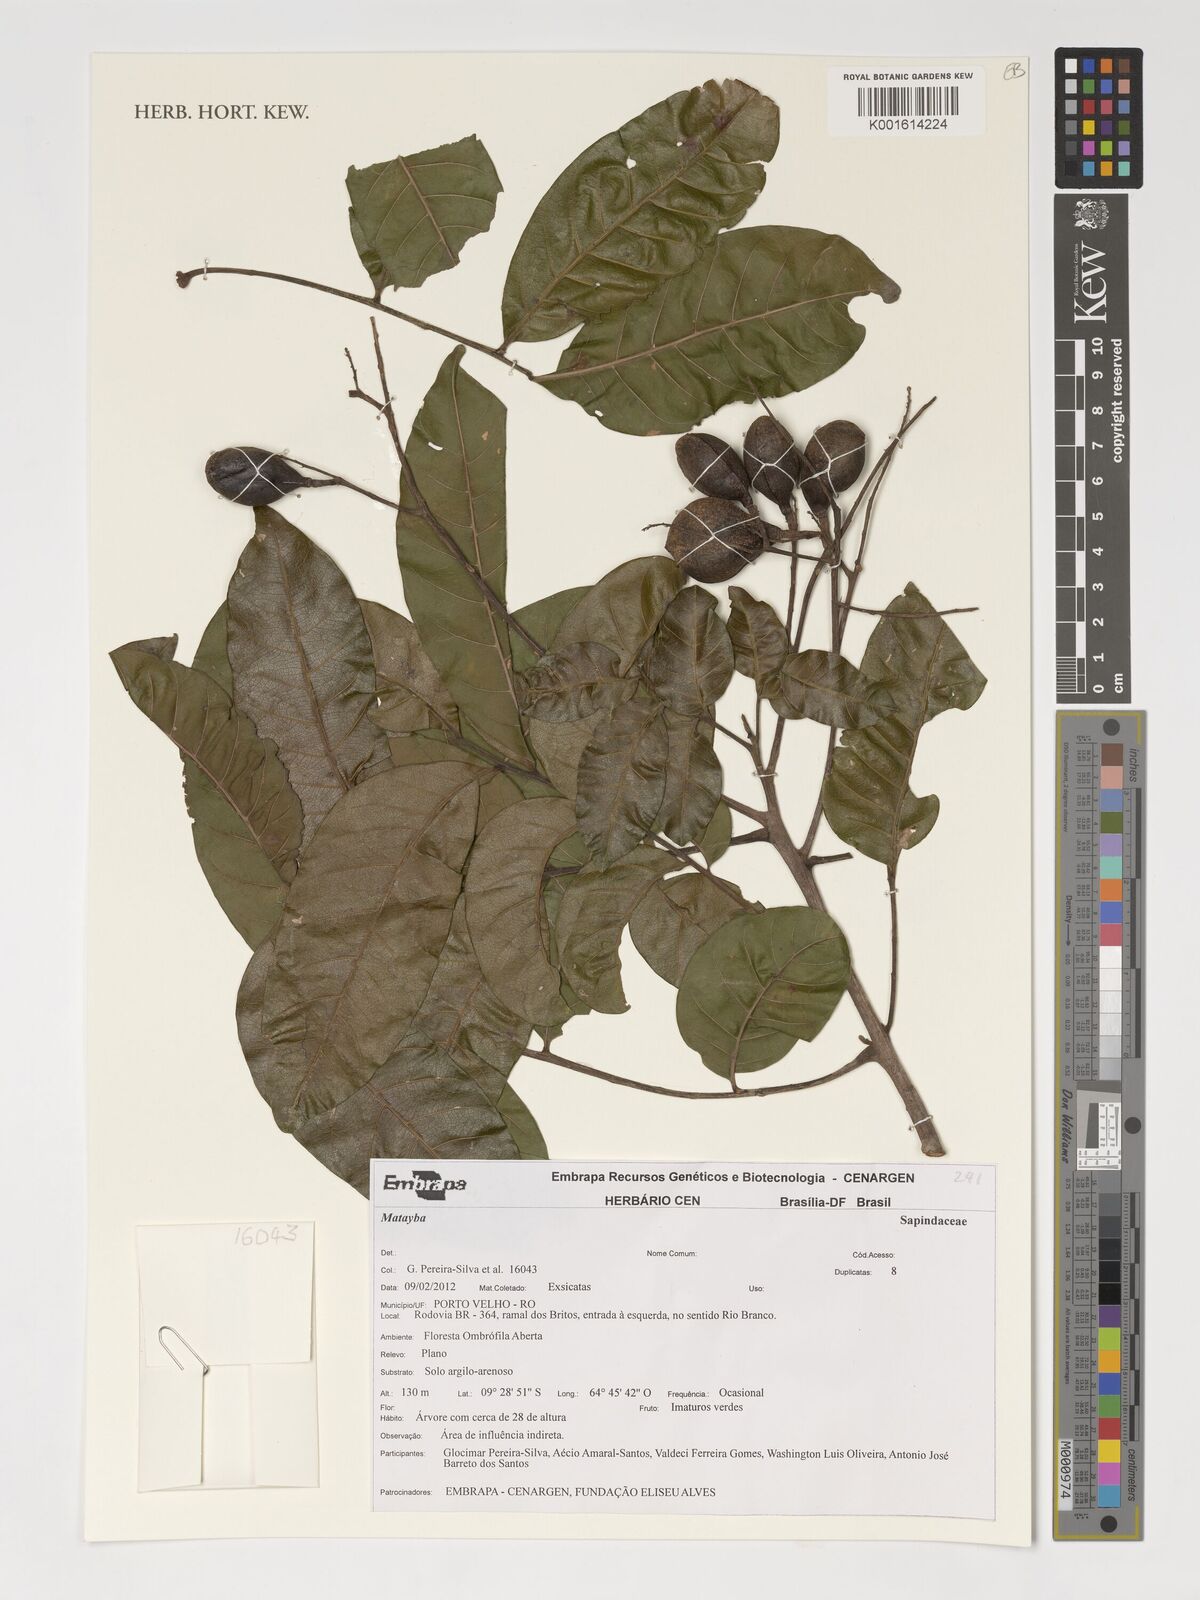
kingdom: Plantae
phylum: Tracheophyta
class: Magnoliopsida
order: Sapindales
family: Sapindaceae
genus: Matayba
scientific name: Matayba
